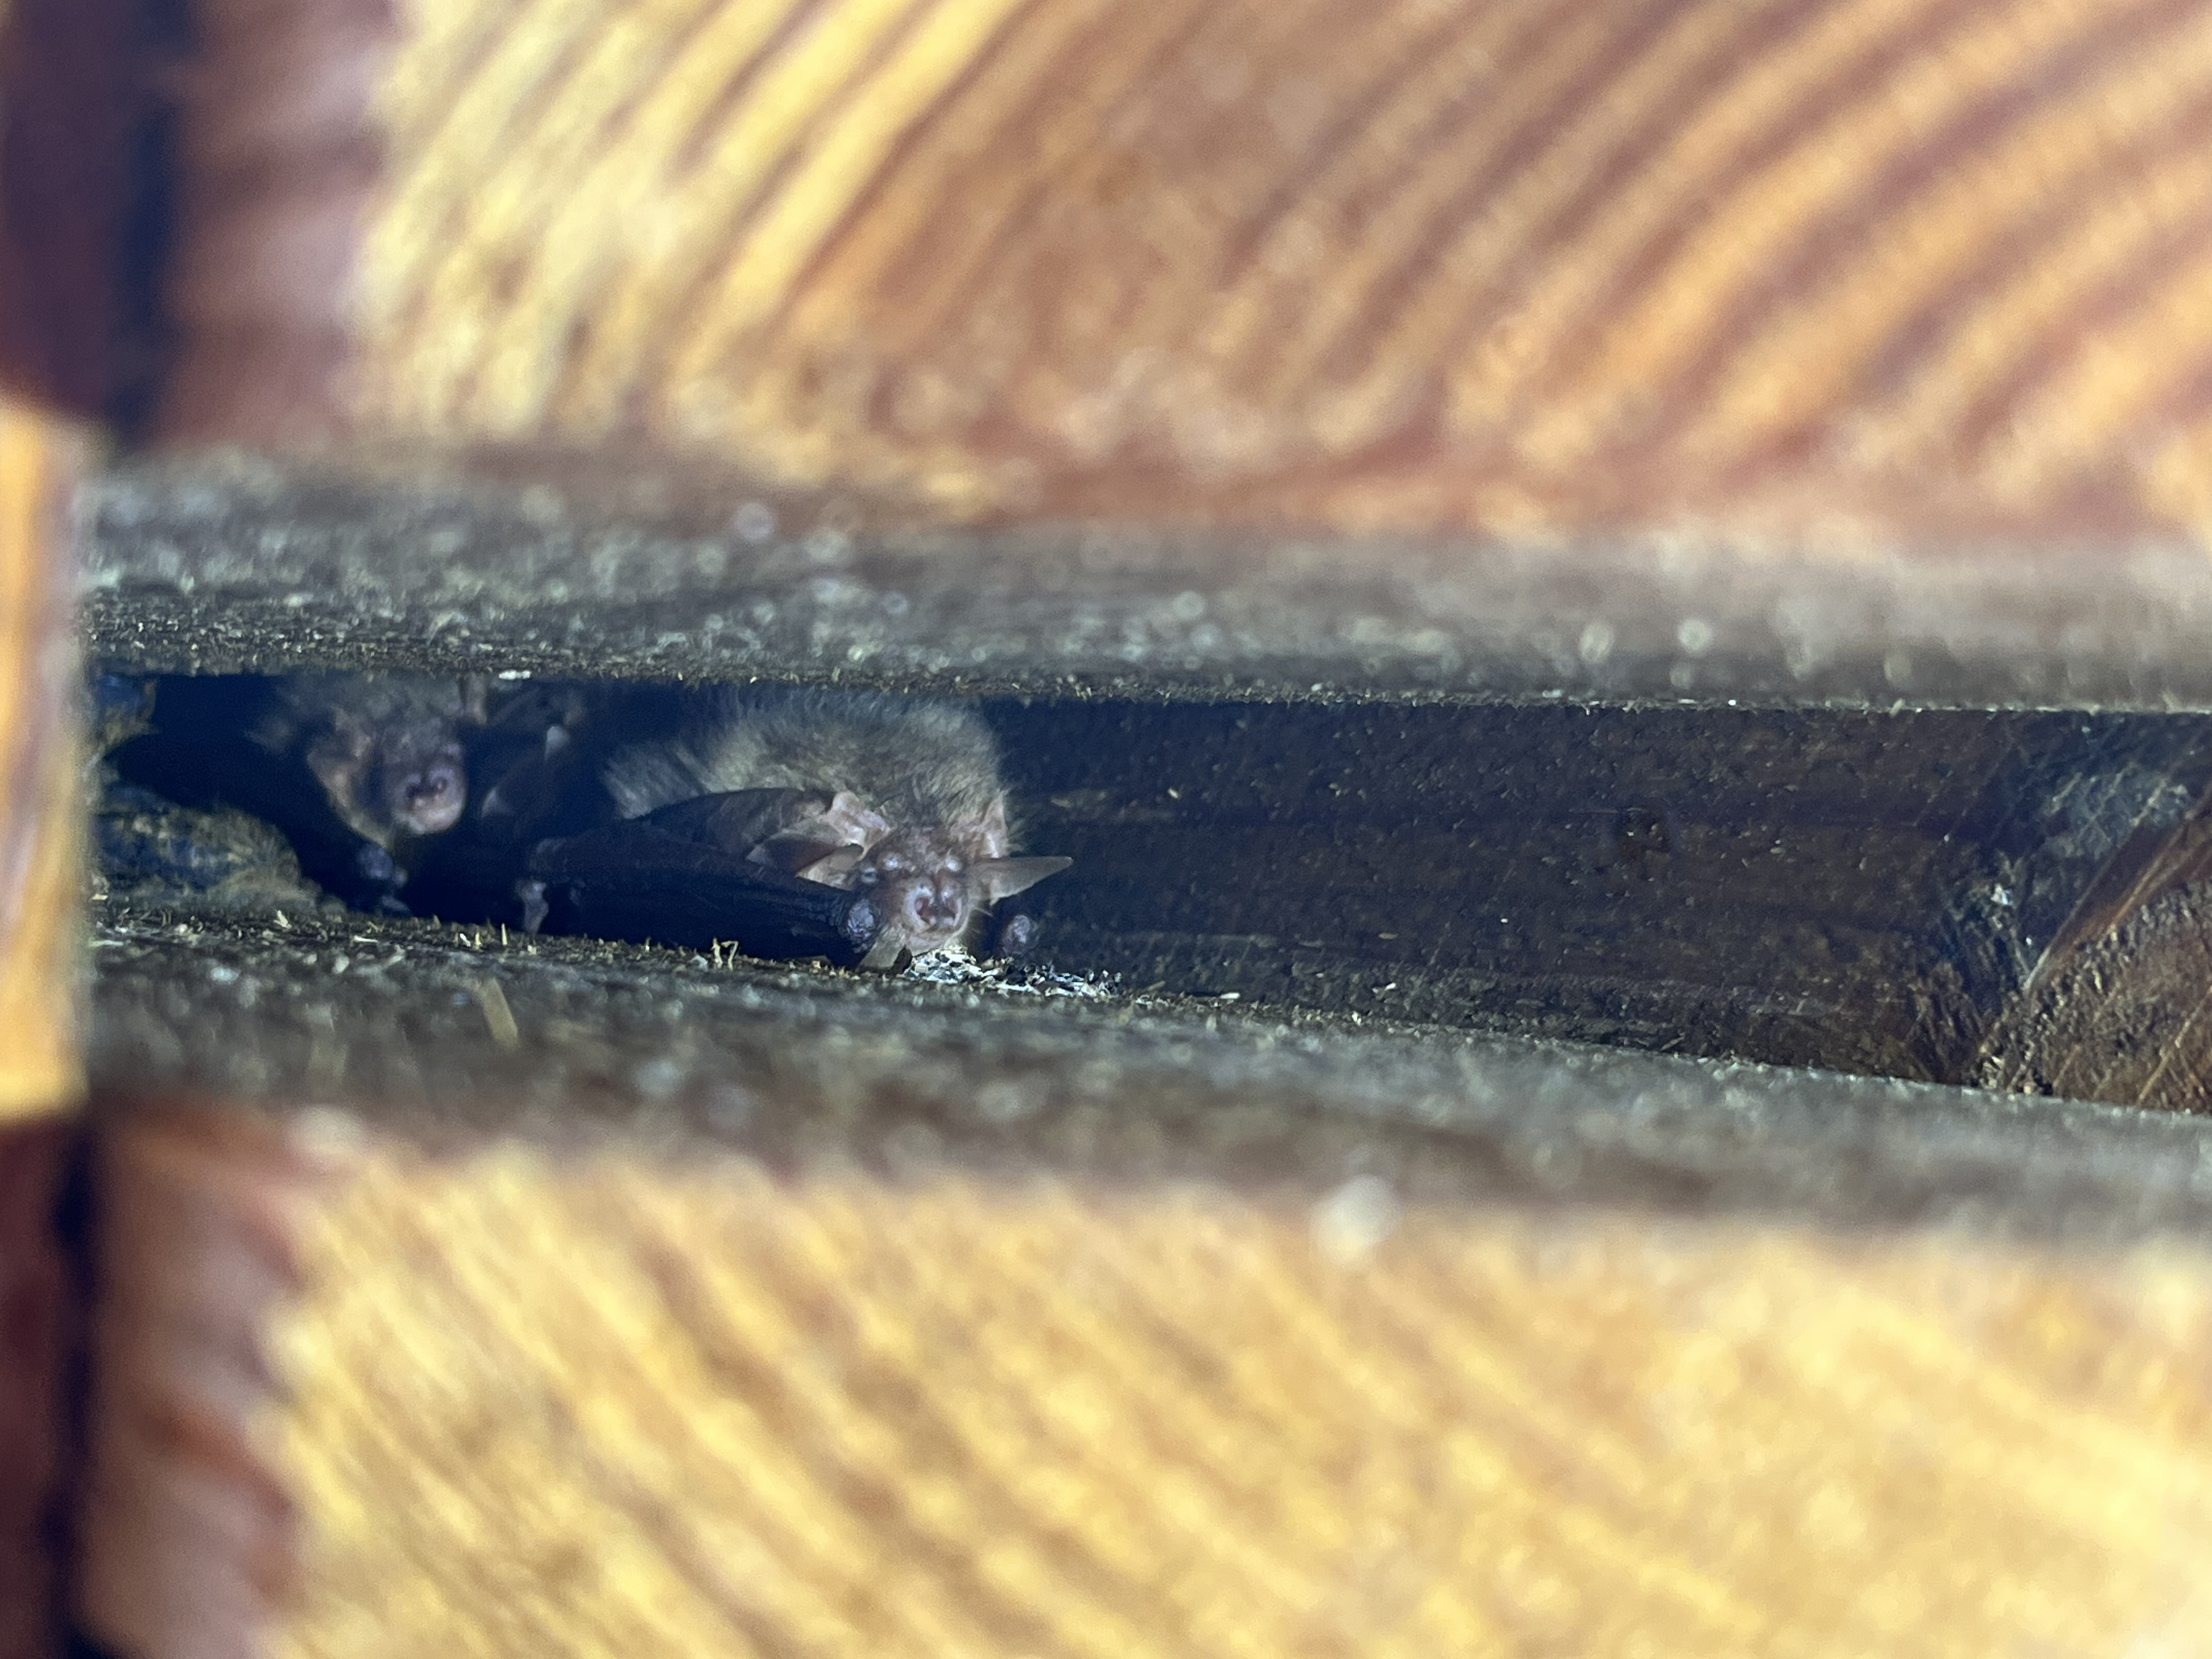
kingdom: Animalia
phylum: Chordata
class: Mammalia
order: Chiroptera
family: Vespertilionidae
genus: Plecotus
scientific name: Plecotus auritus
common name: Brown long-eared bat
